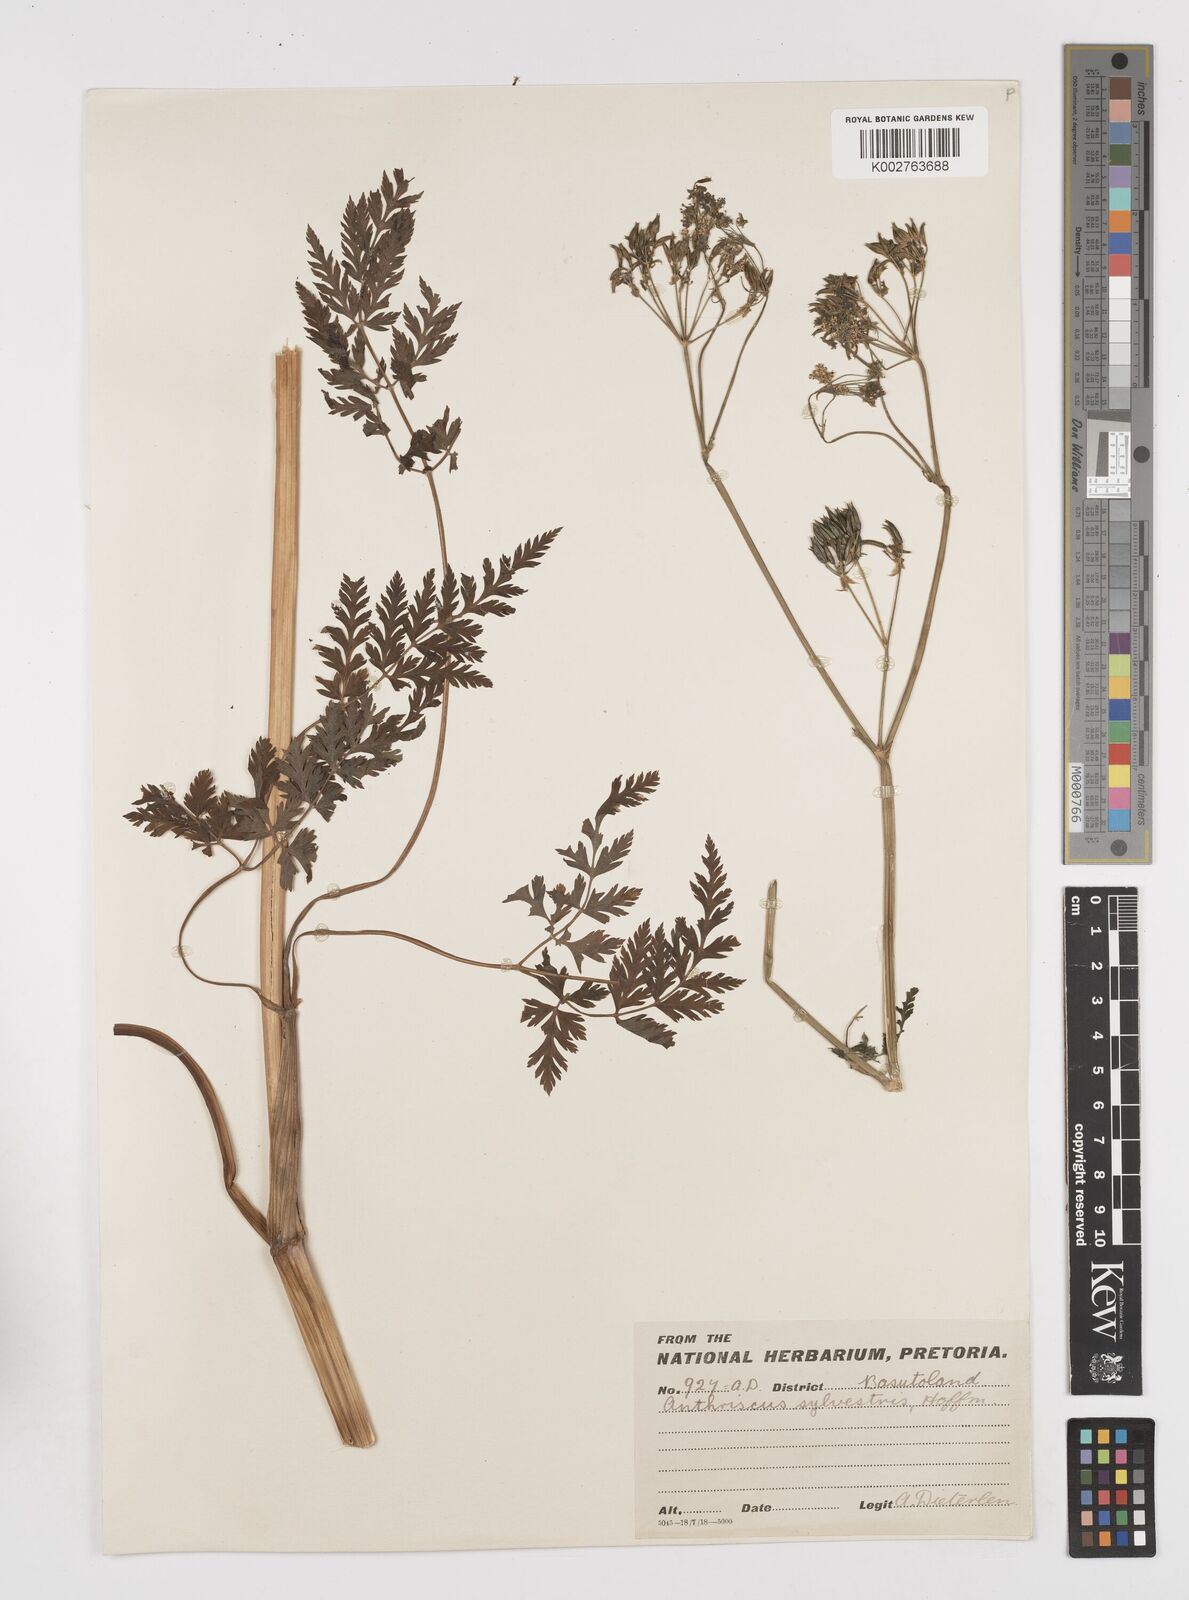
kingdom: Plantae
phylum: Tracheophyta
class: Magnoliopsida
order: Apiales
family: Apiaceae
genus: Anthriscus
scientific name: Anthriscus sylvestris
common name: Cow parsley
